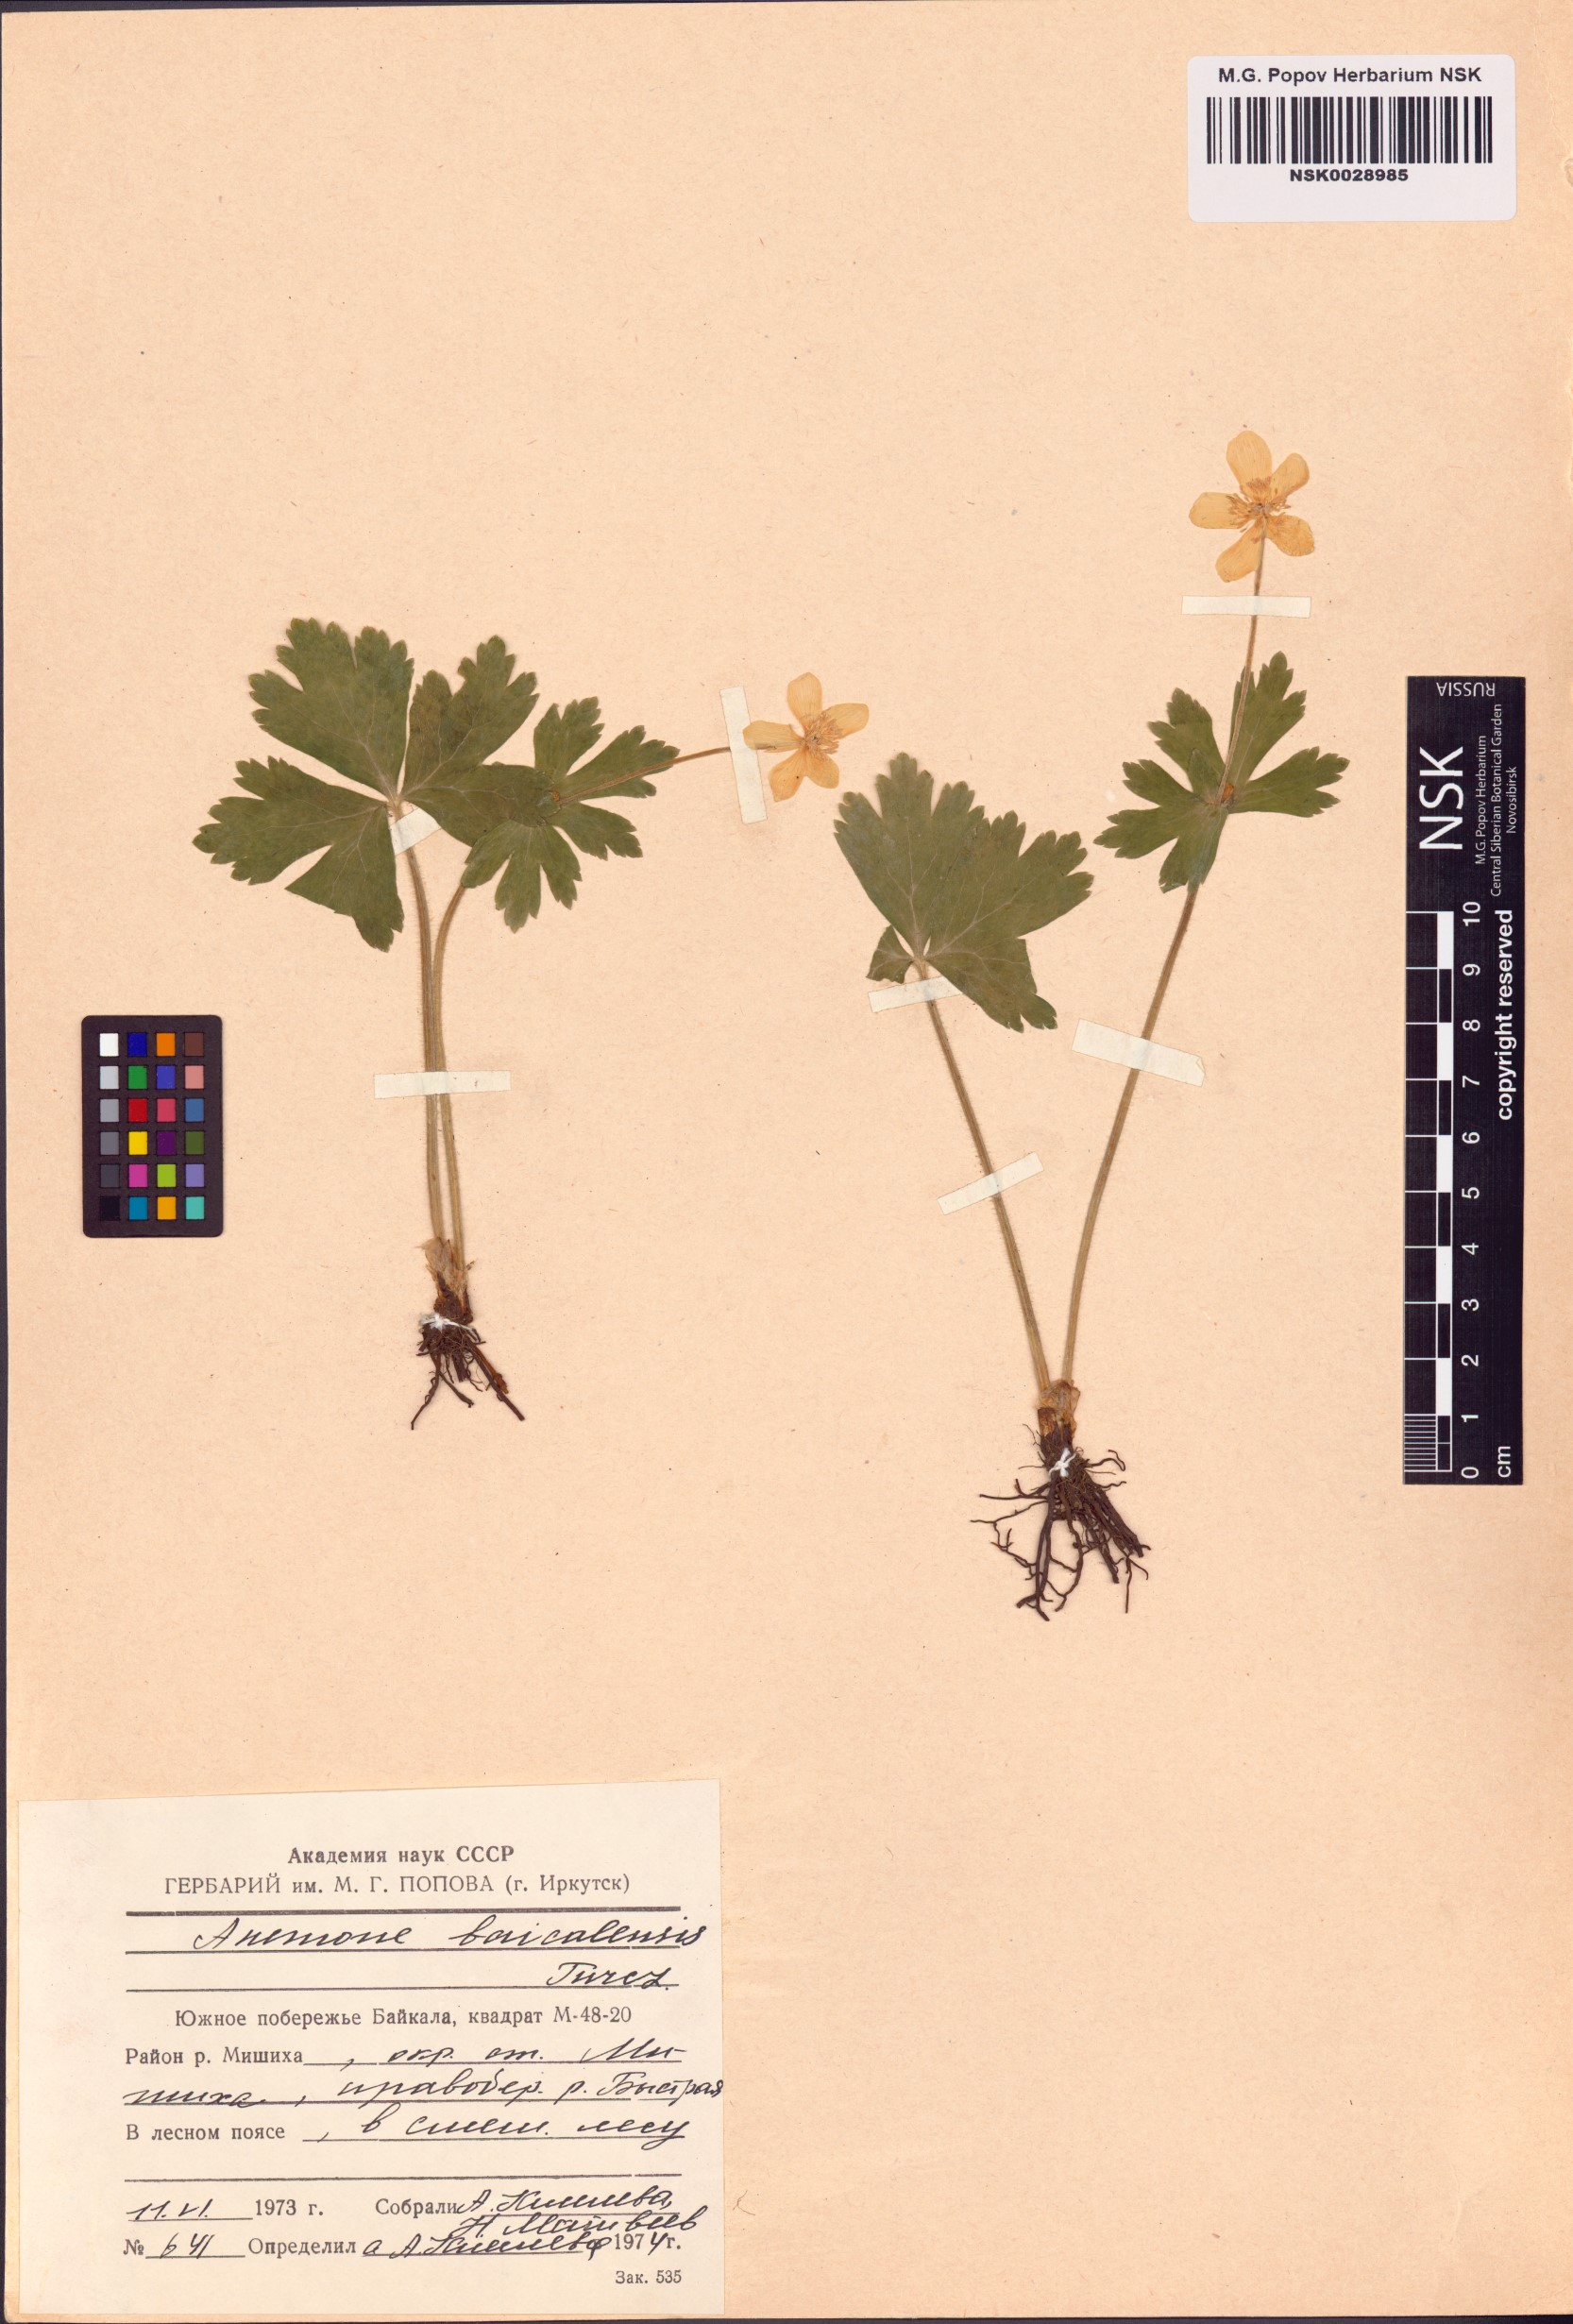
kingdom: Plantae
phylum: Tracheophyta
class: Magnoliopsida
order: Ranunculales
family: Ranunculaceae
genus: Anemonastrum
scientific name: Anemonastrum baicalense
